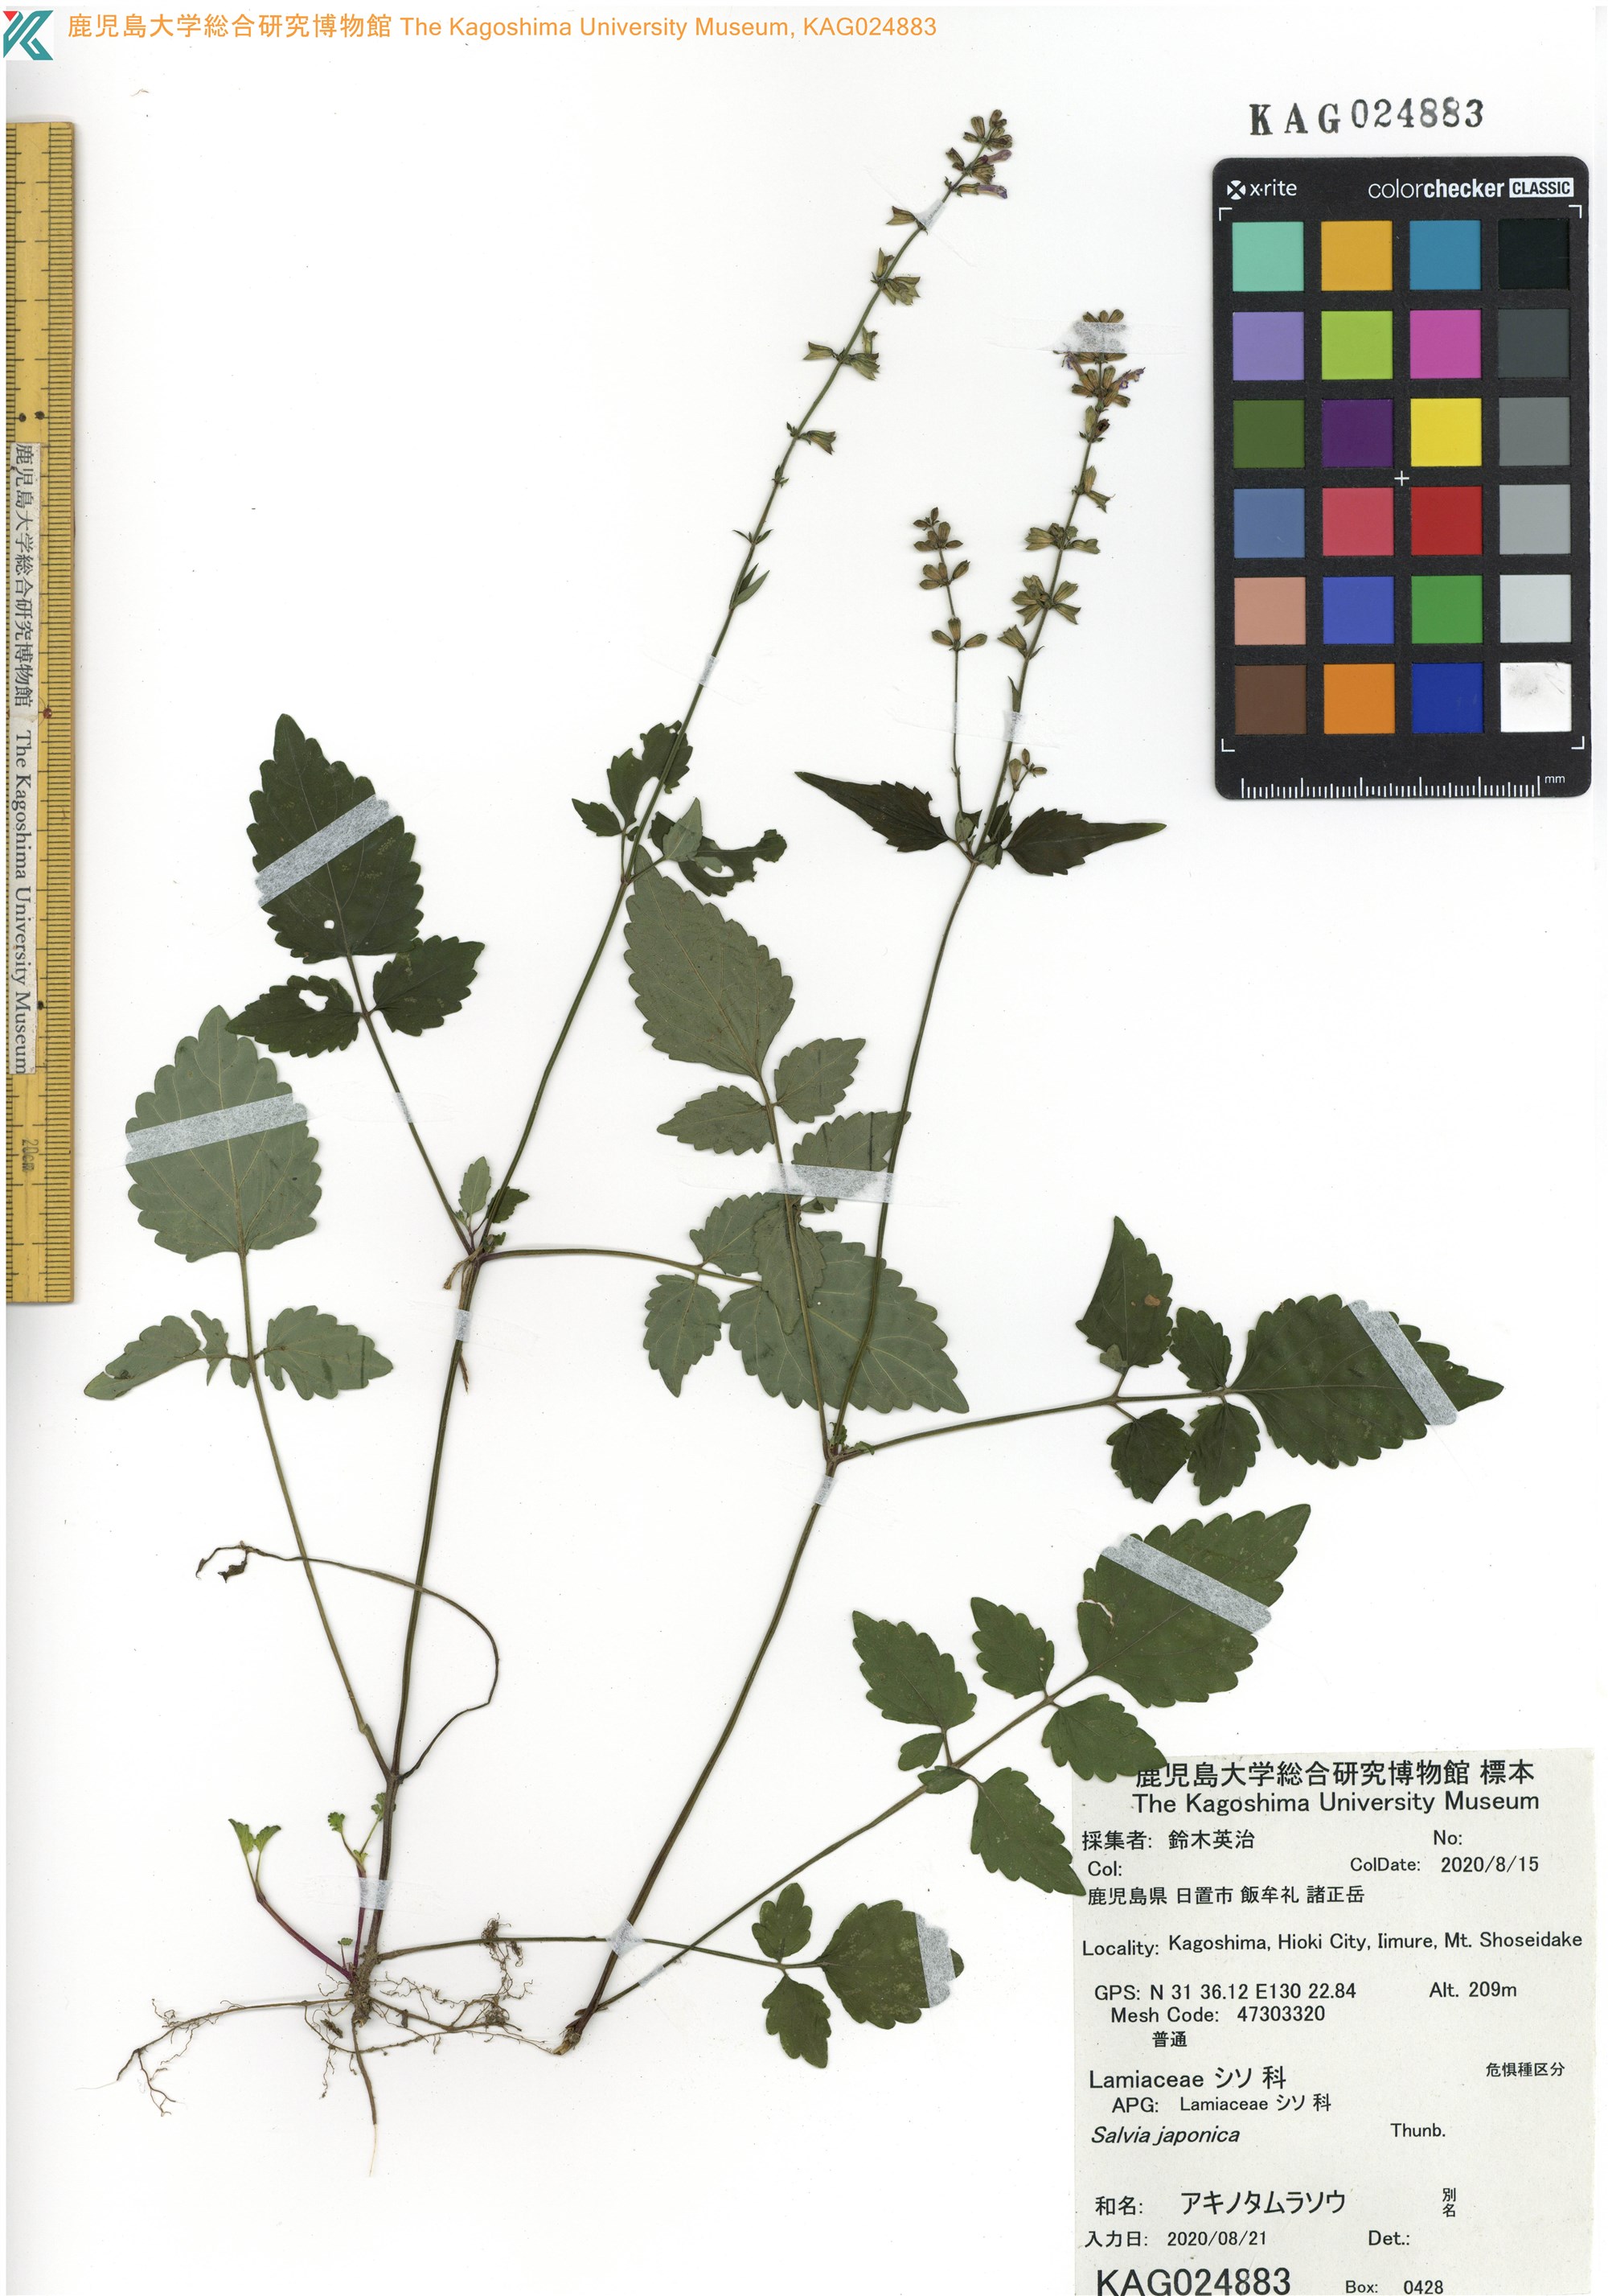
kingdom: Plantae
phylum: Tracheophyta
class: Magnoliopsida
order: Lamiales
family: Lamiaceae
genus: Salvia
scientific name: Salvia japonica
